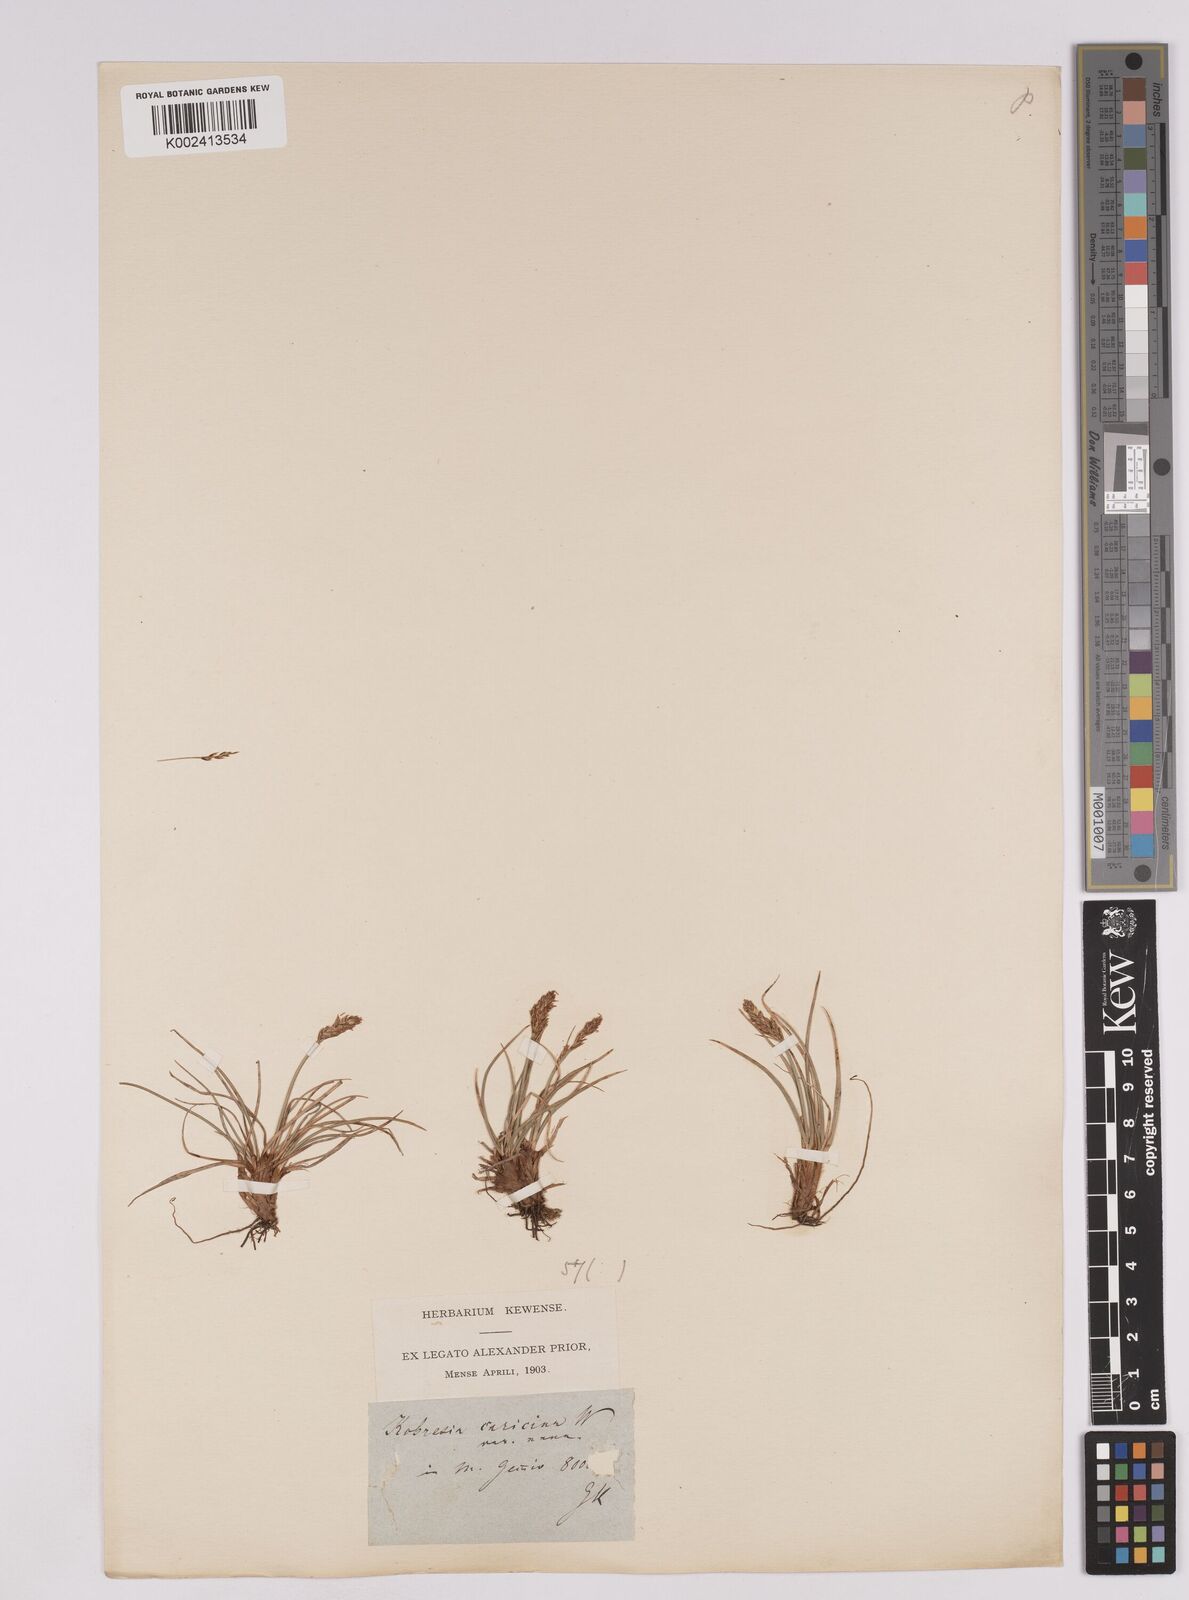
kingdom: Plantae
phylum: Tracheophyta
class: Liliopsida
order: Poales
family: Cyperaceae
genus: Carex
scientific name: Carex simpliciuscula
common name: Simple bog sedge
